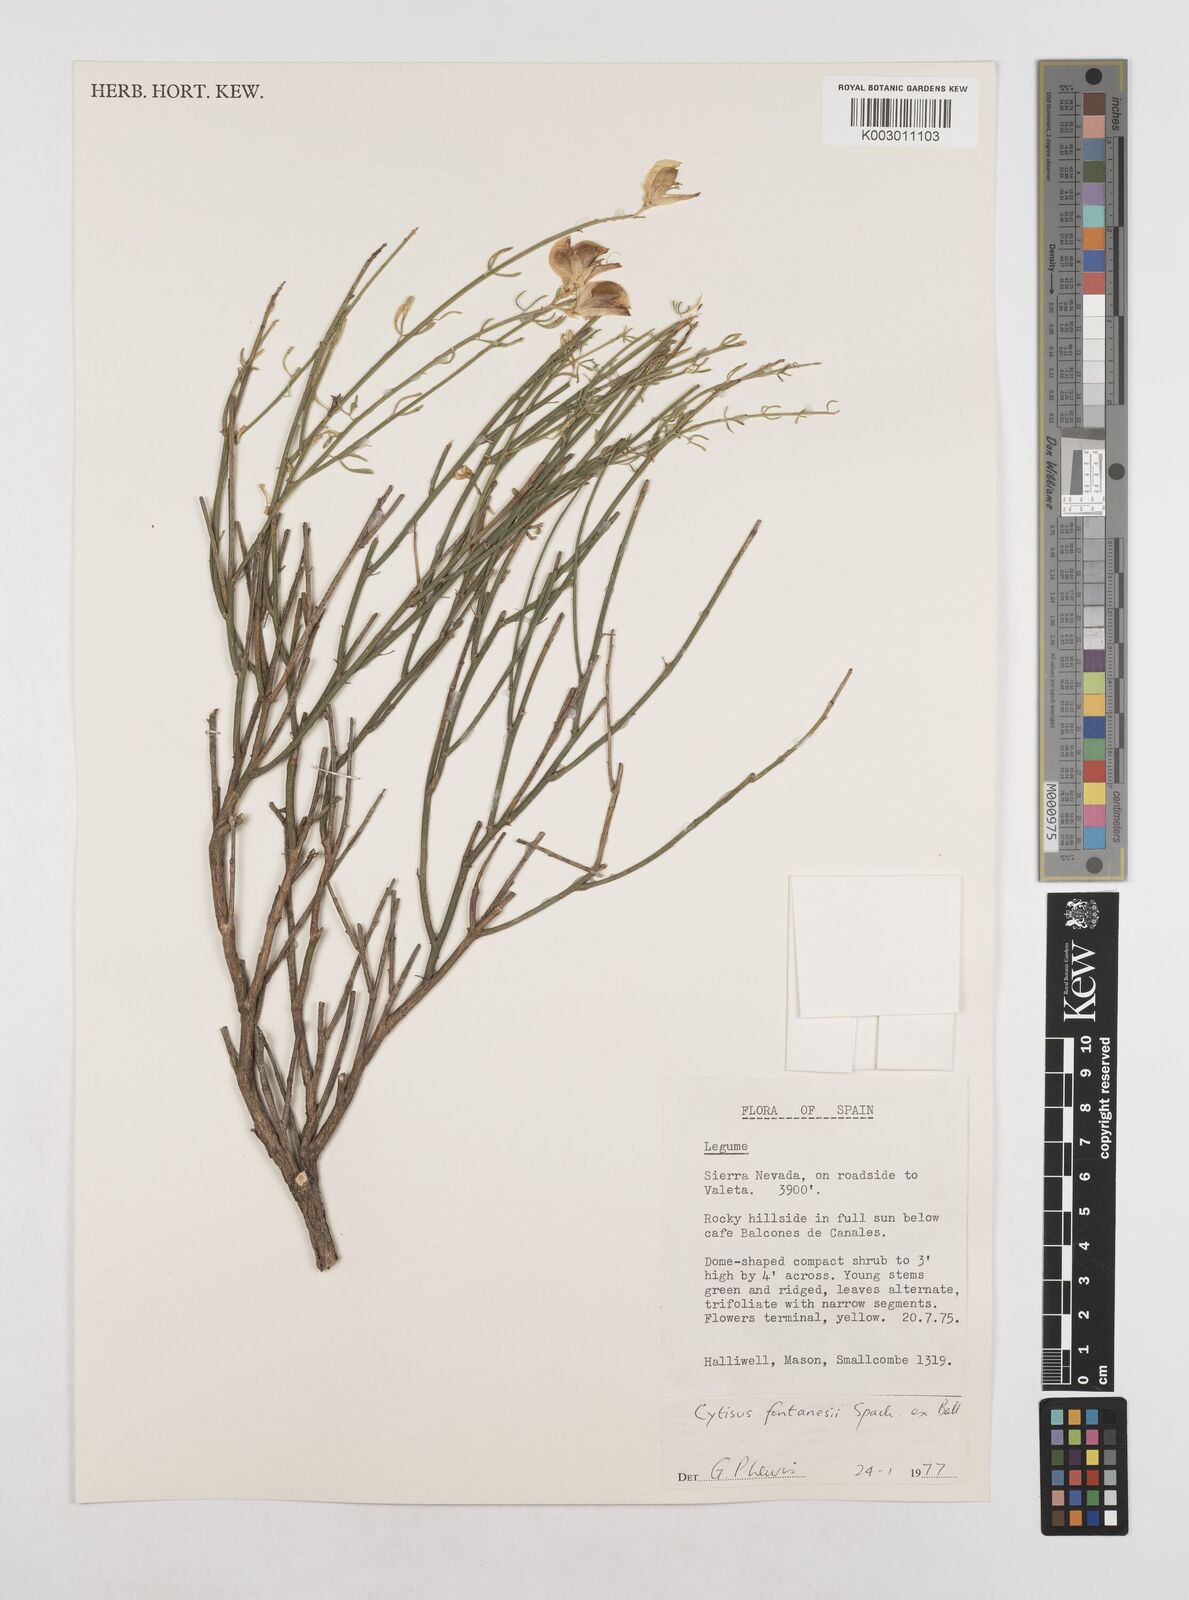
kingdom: Plantae
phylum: Tracheophyta
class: Magnoliopsida
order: Fabales
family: Fabaceae
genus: Cytisus
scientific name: Cytisus fontanesii
